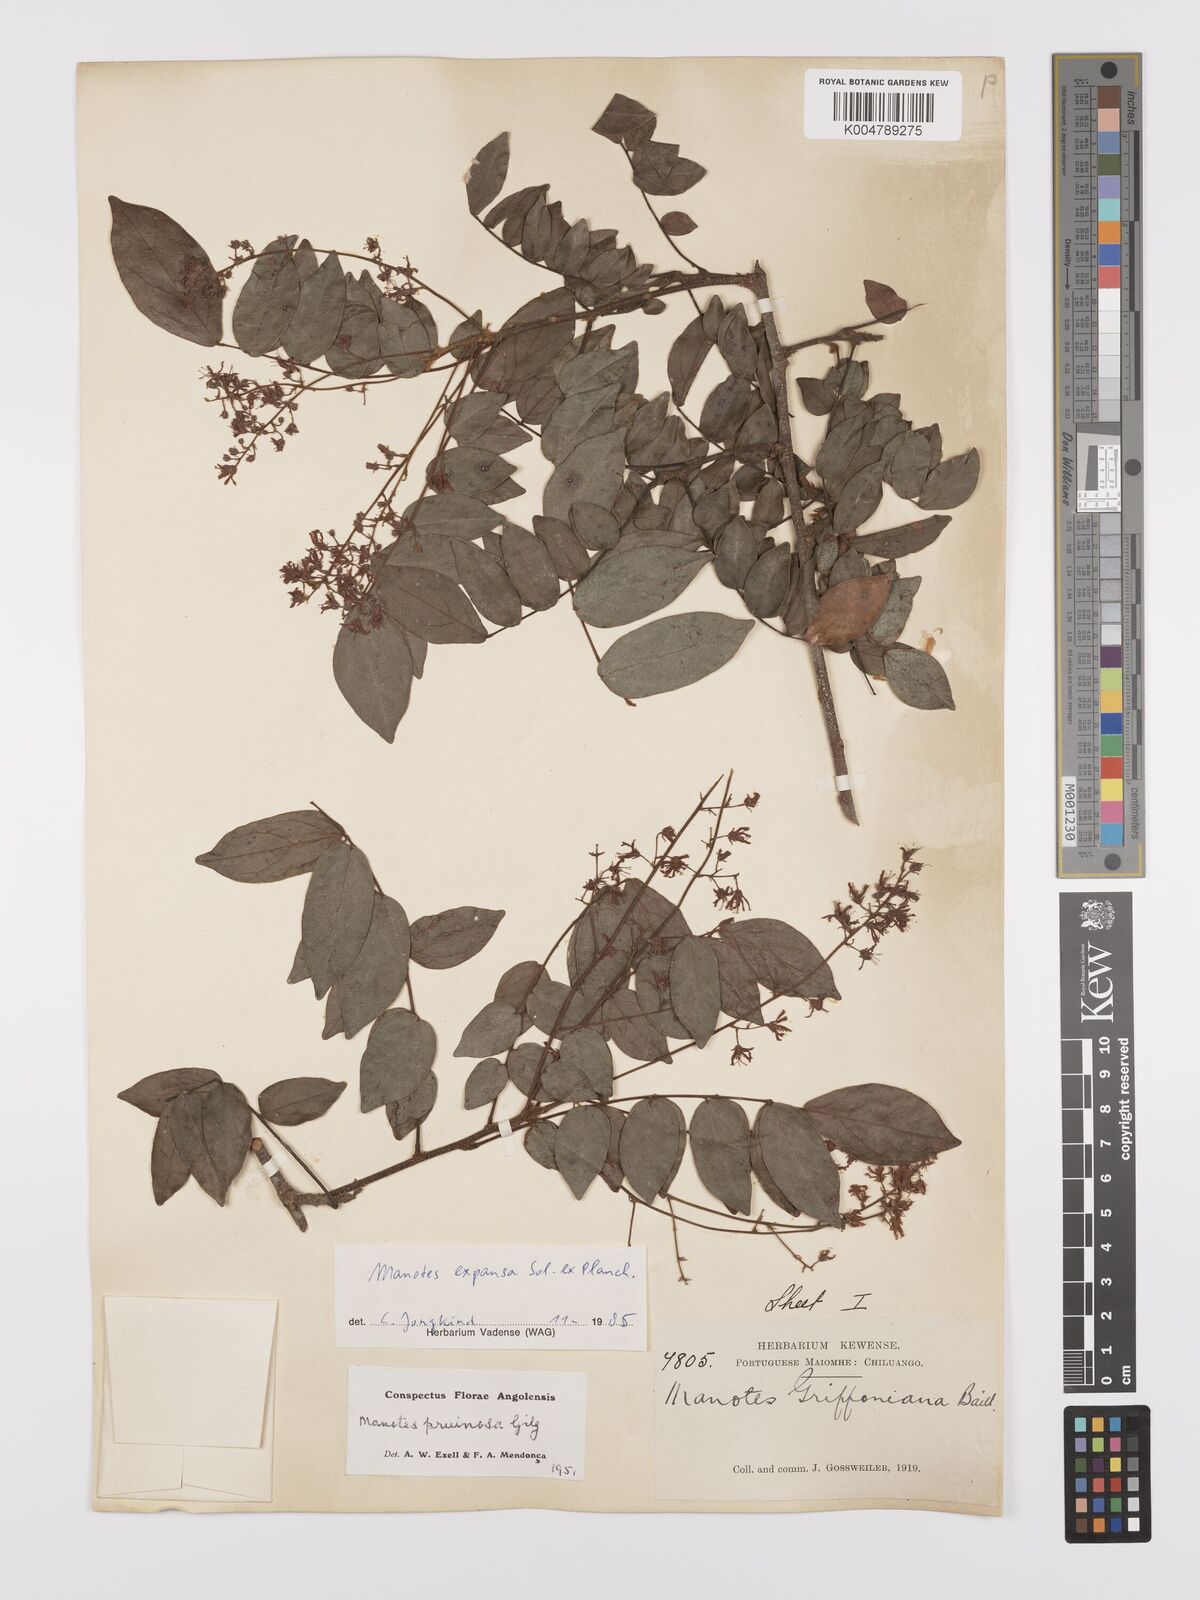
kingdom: Plantae
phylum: Tracheophyta
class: Magnoliopsida
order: Oxalidales
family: Connaraceae
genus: Manotes
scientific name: Manotes expansa
